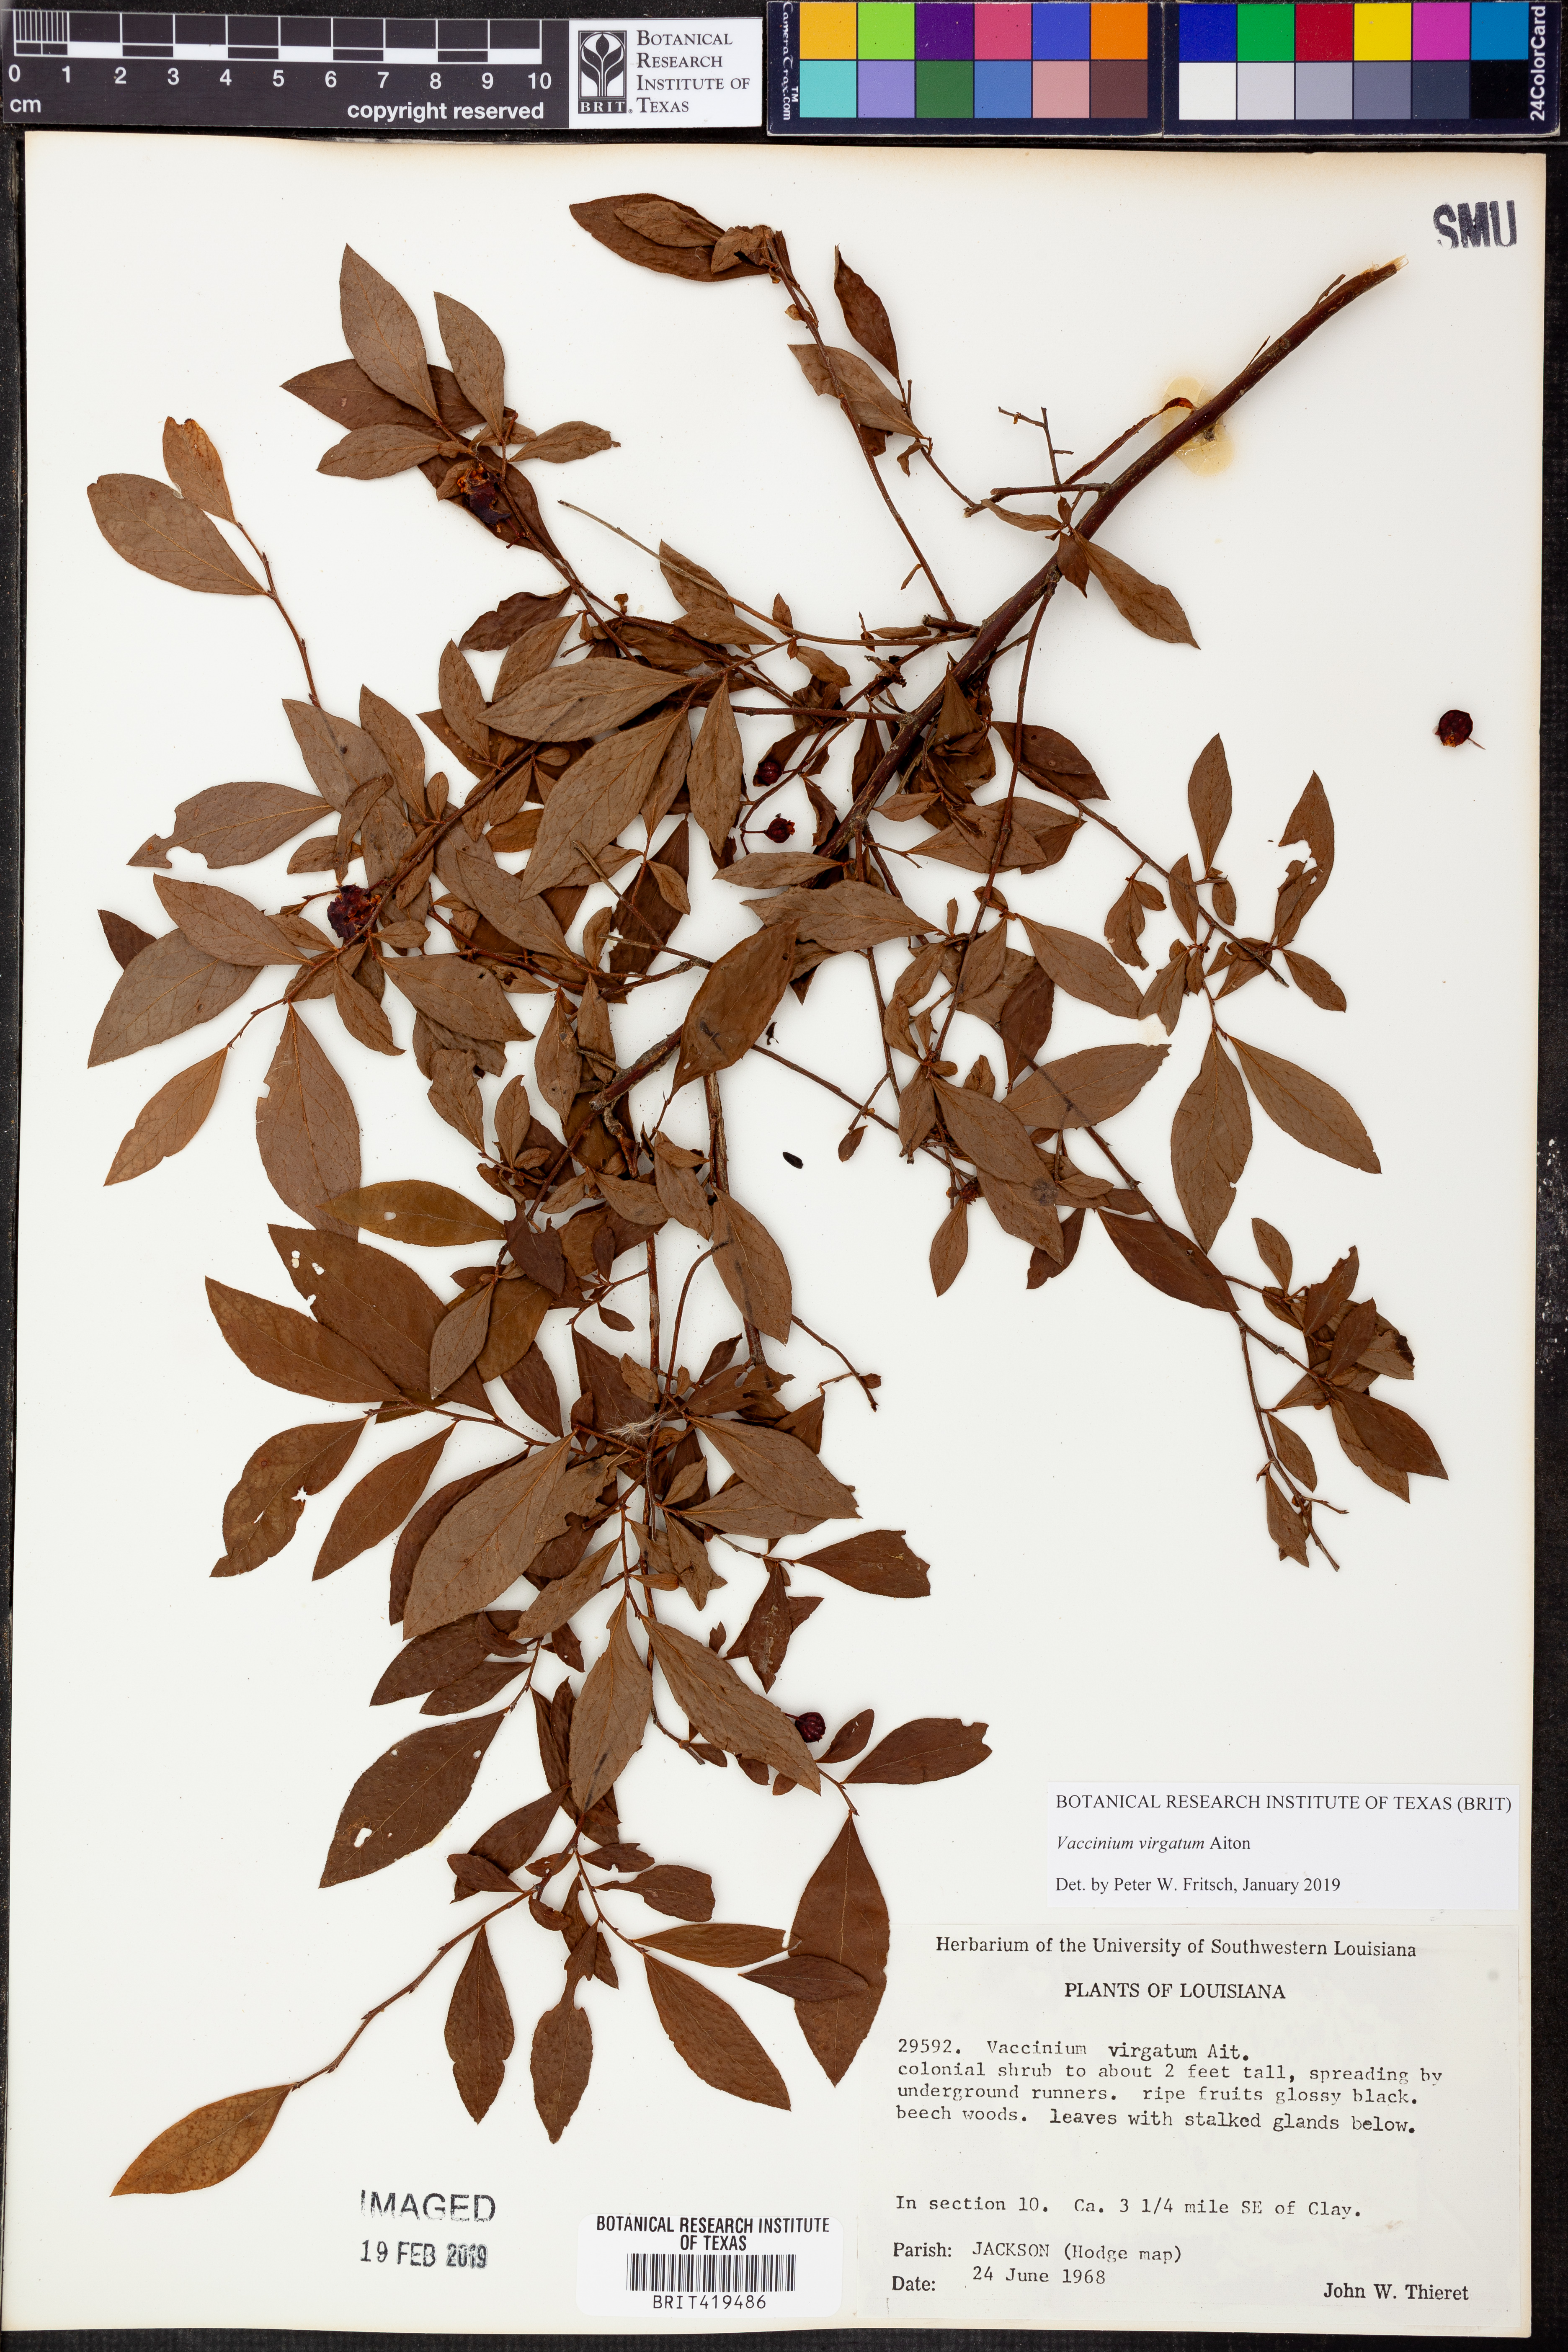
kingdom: Plantae
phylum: Tracheophyta
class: Magnoliopsida
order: Ericales
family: Ericaceae
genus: Vaccinium
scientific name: Vaccinium corymbosum
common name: Blueberry
